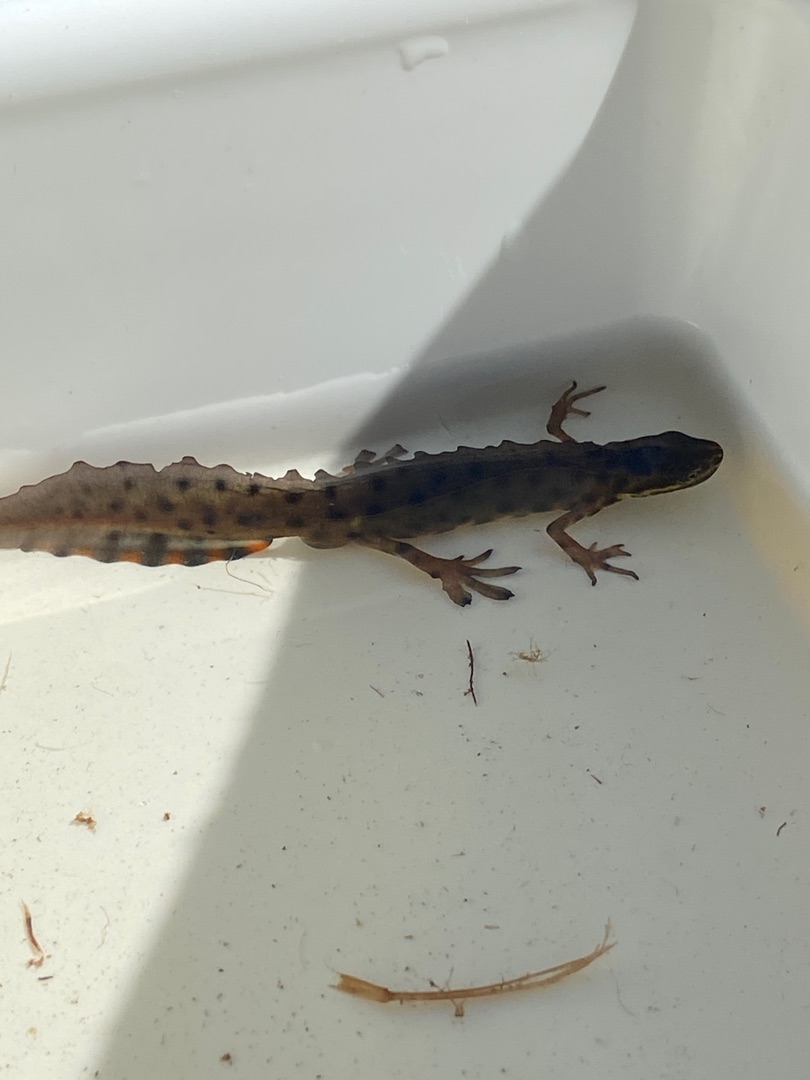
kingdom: Animalia
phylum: Chordata
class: Amphibia
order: Caudata
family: Salamandridae
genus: Lissotriton
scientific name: Lissotriton vulgaris
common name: Lille vandsalamander
